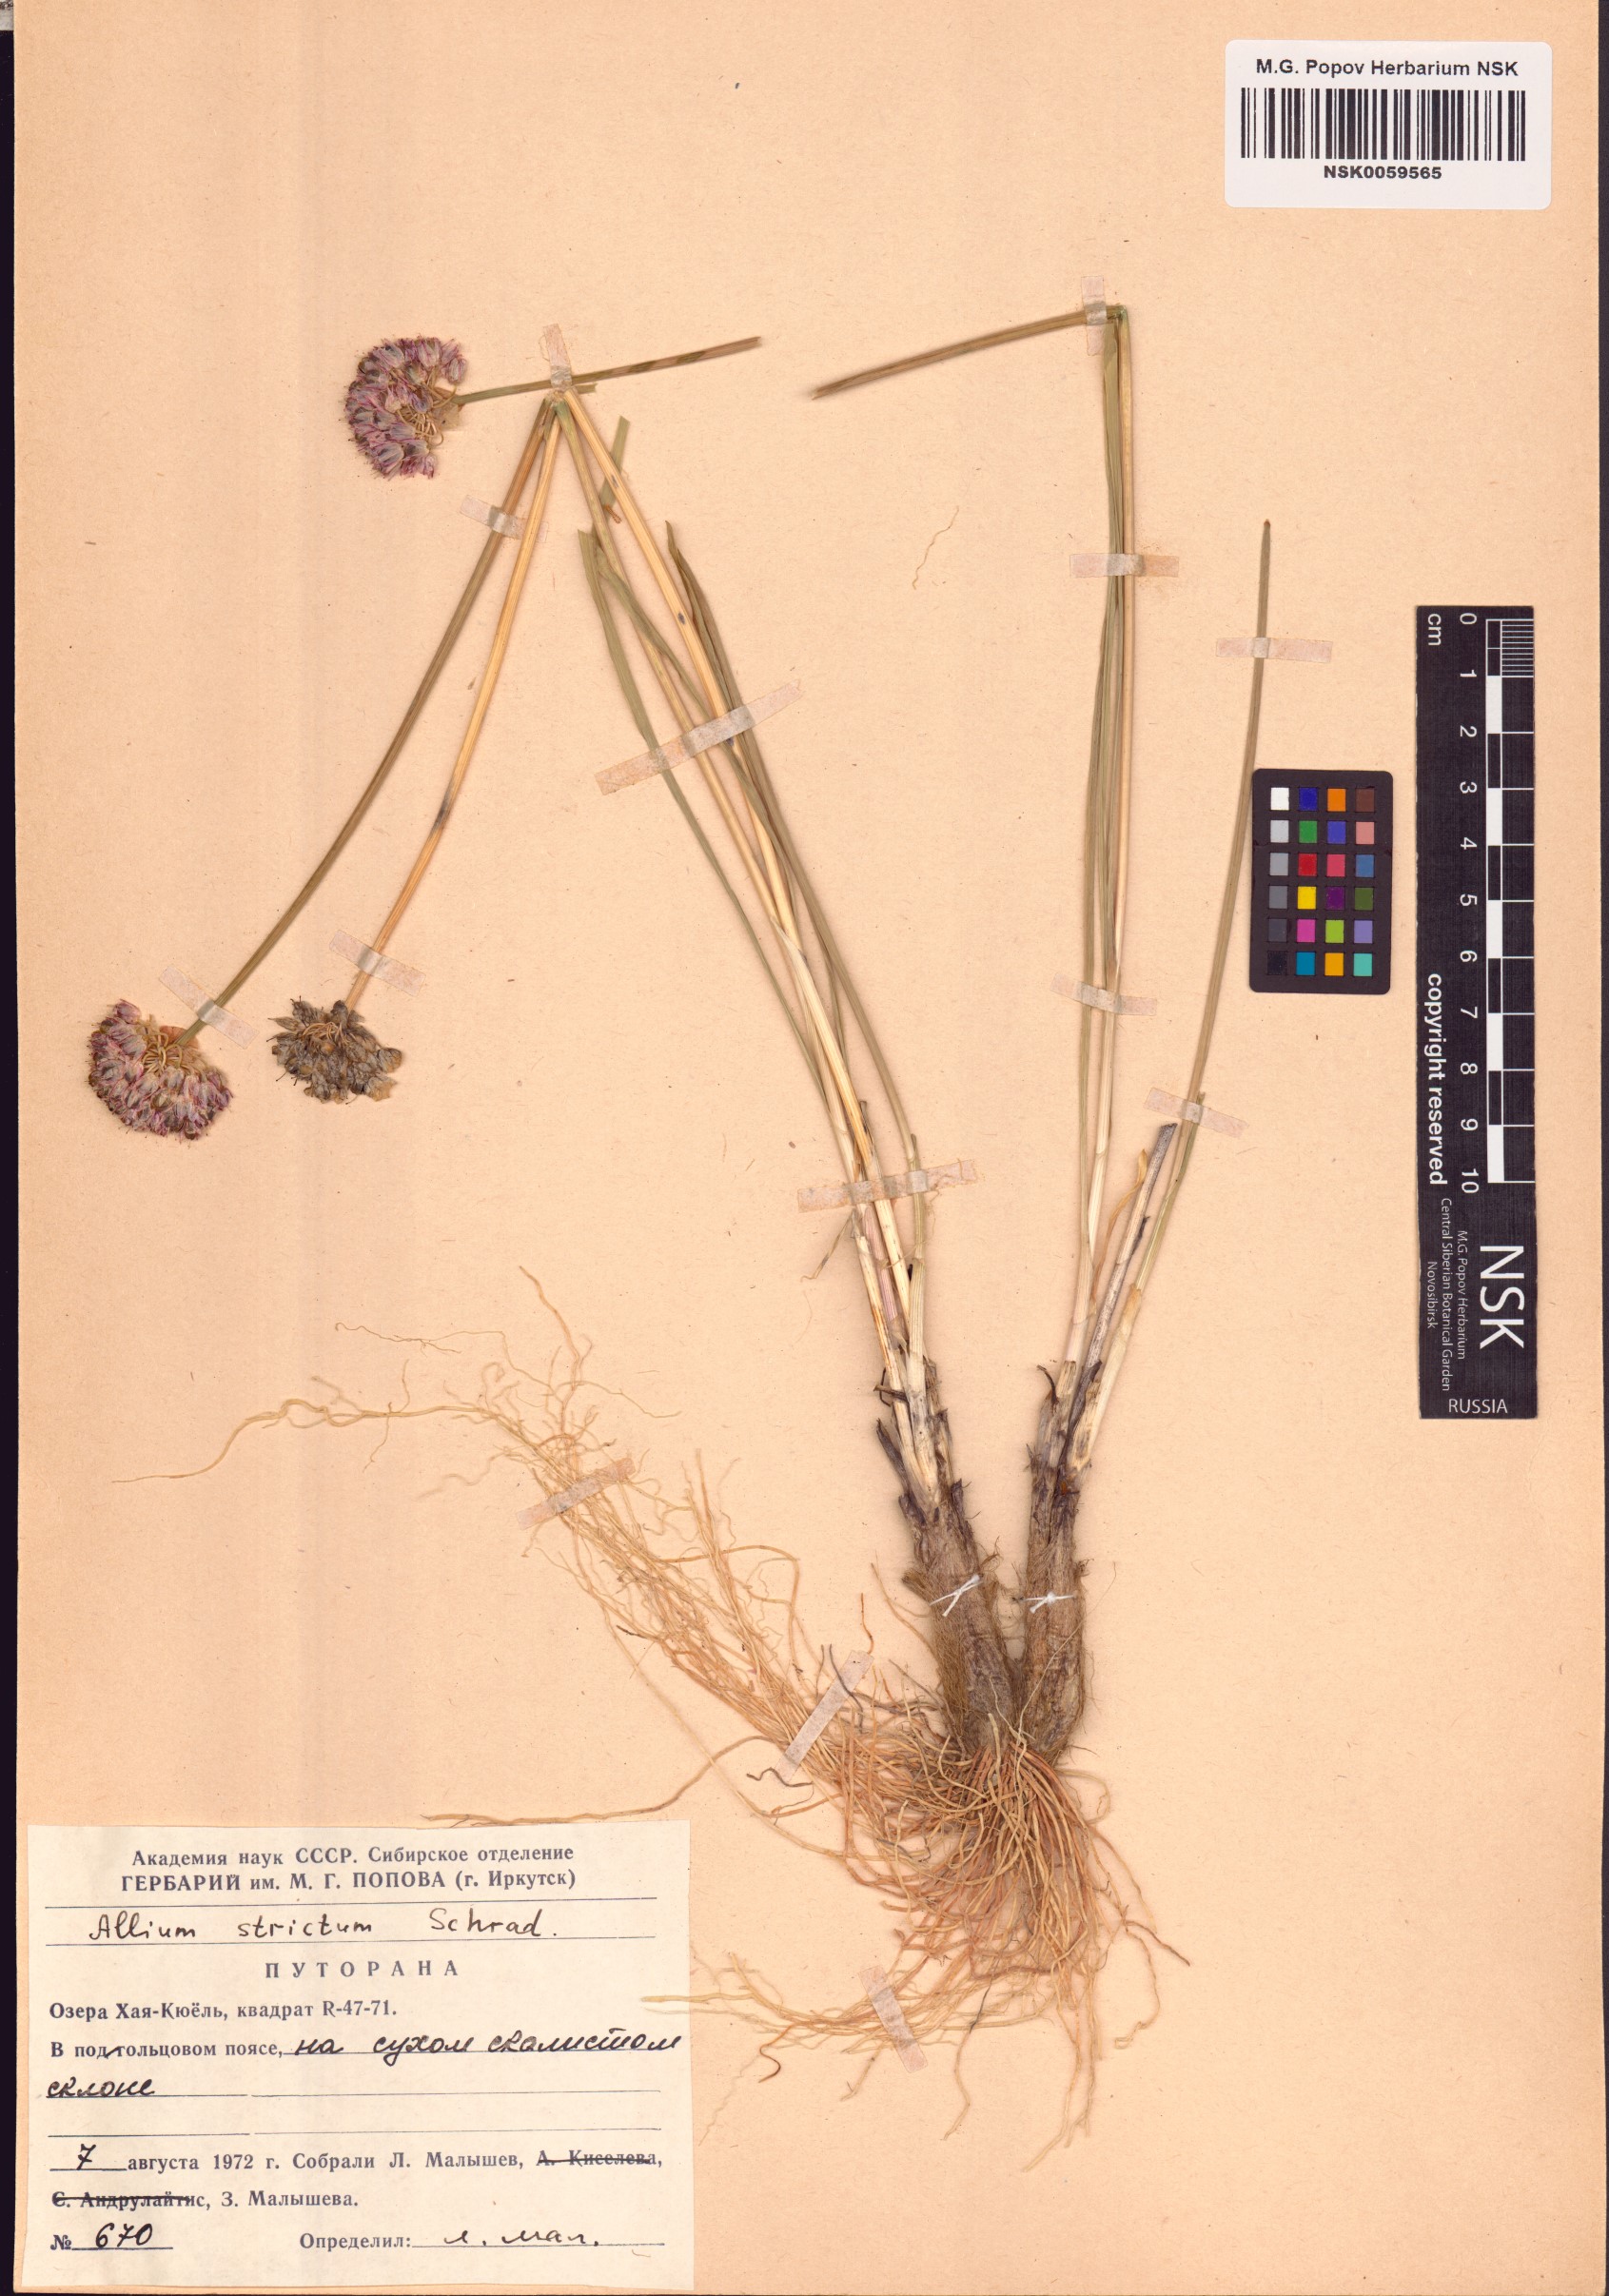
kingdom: Plantae
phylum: Tracheophyta
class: Liliopsida
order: Asparagales
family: Amaryllidaceae
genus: Allium
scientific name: Allium strictum
